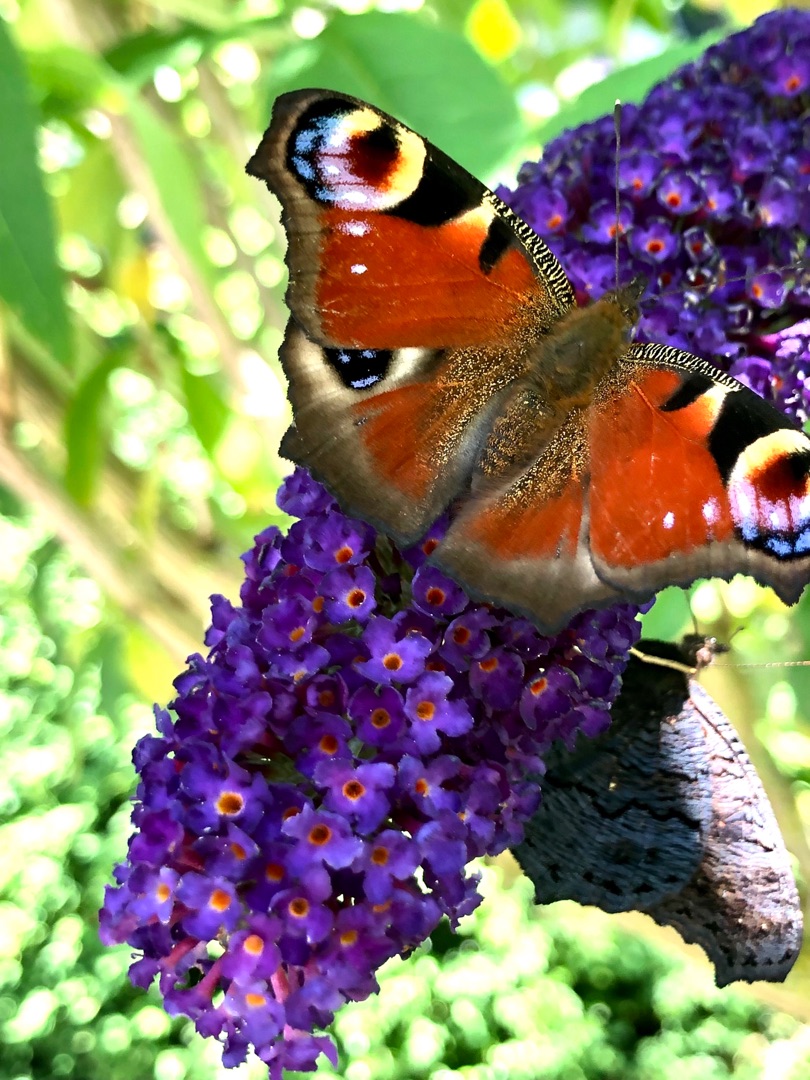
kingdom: Animalia
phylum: Arthropoda
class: Insecta
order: Lepidoptera
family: Nymphalidae
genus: Aglais
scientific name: Aglais io
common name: Dagpåfugleøje
